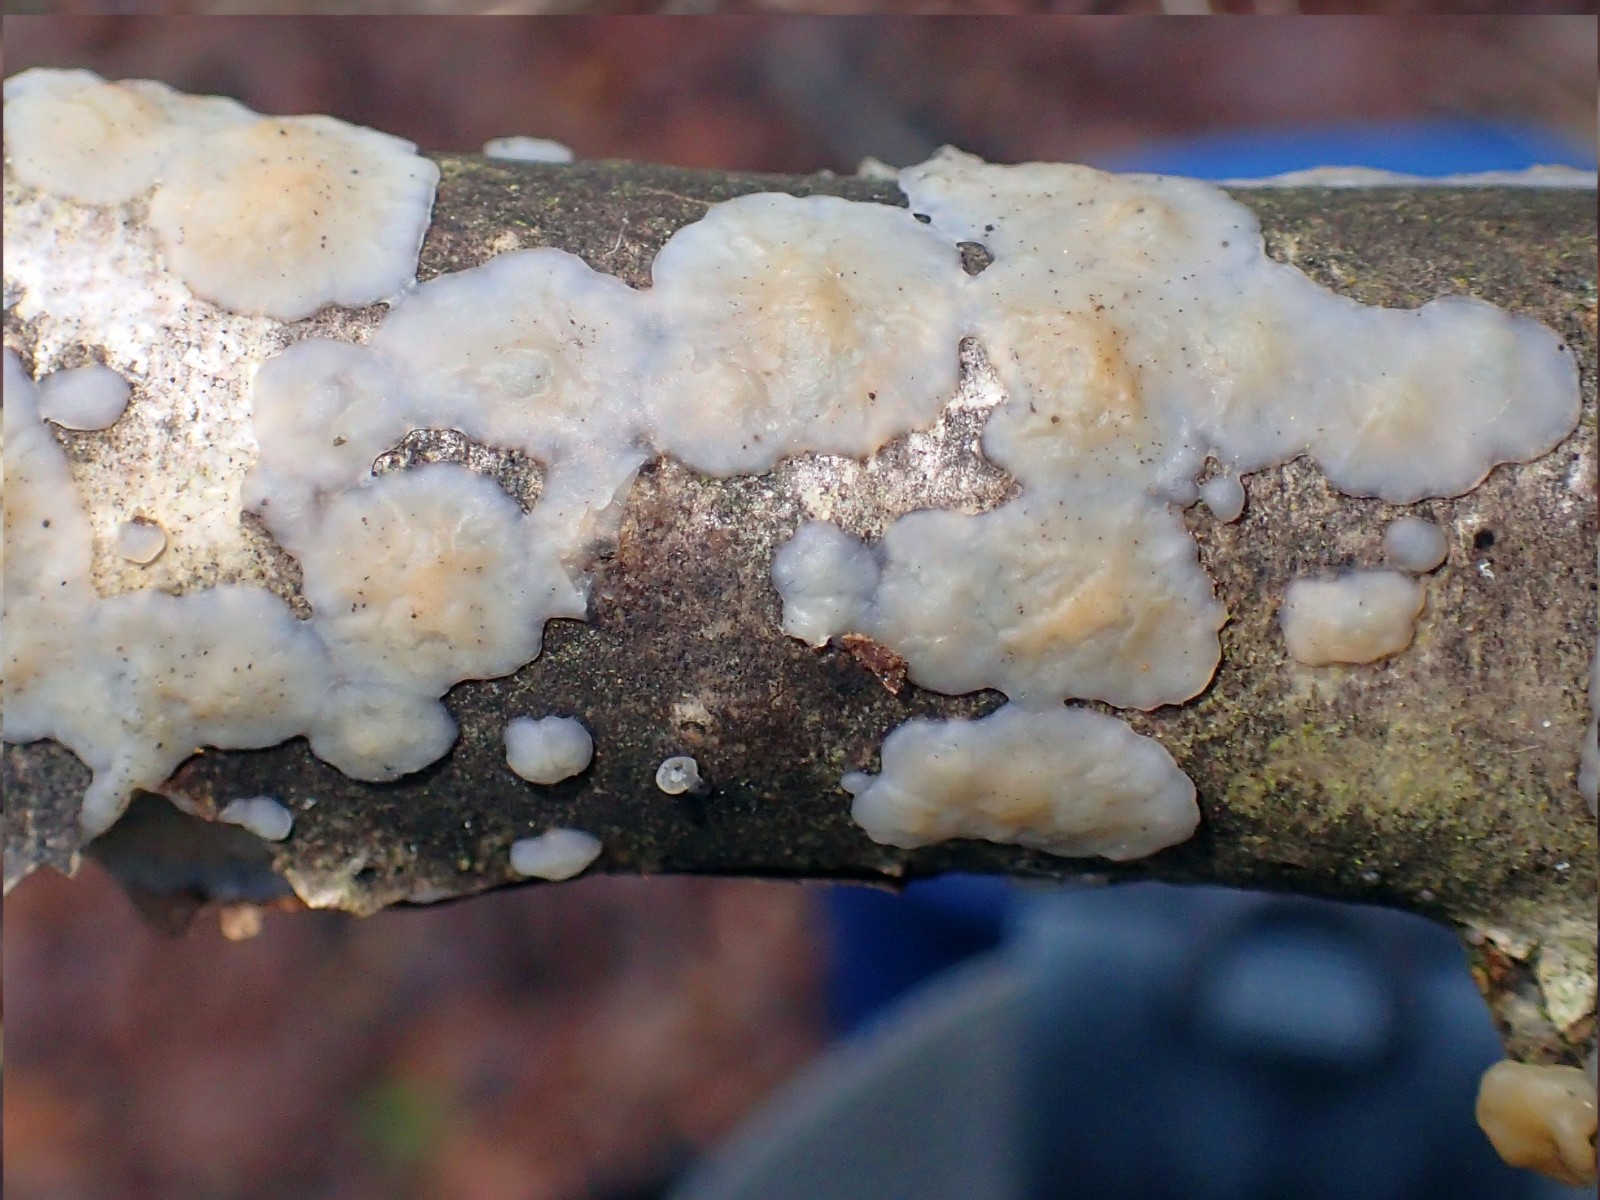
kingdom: Fungi
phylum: Basidiomycota
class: Agaricomycetes
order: Auriculariales
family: Auriculariaceae
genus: Exidia
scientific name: Exidia thuretiana
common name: hvidlig bævretop
